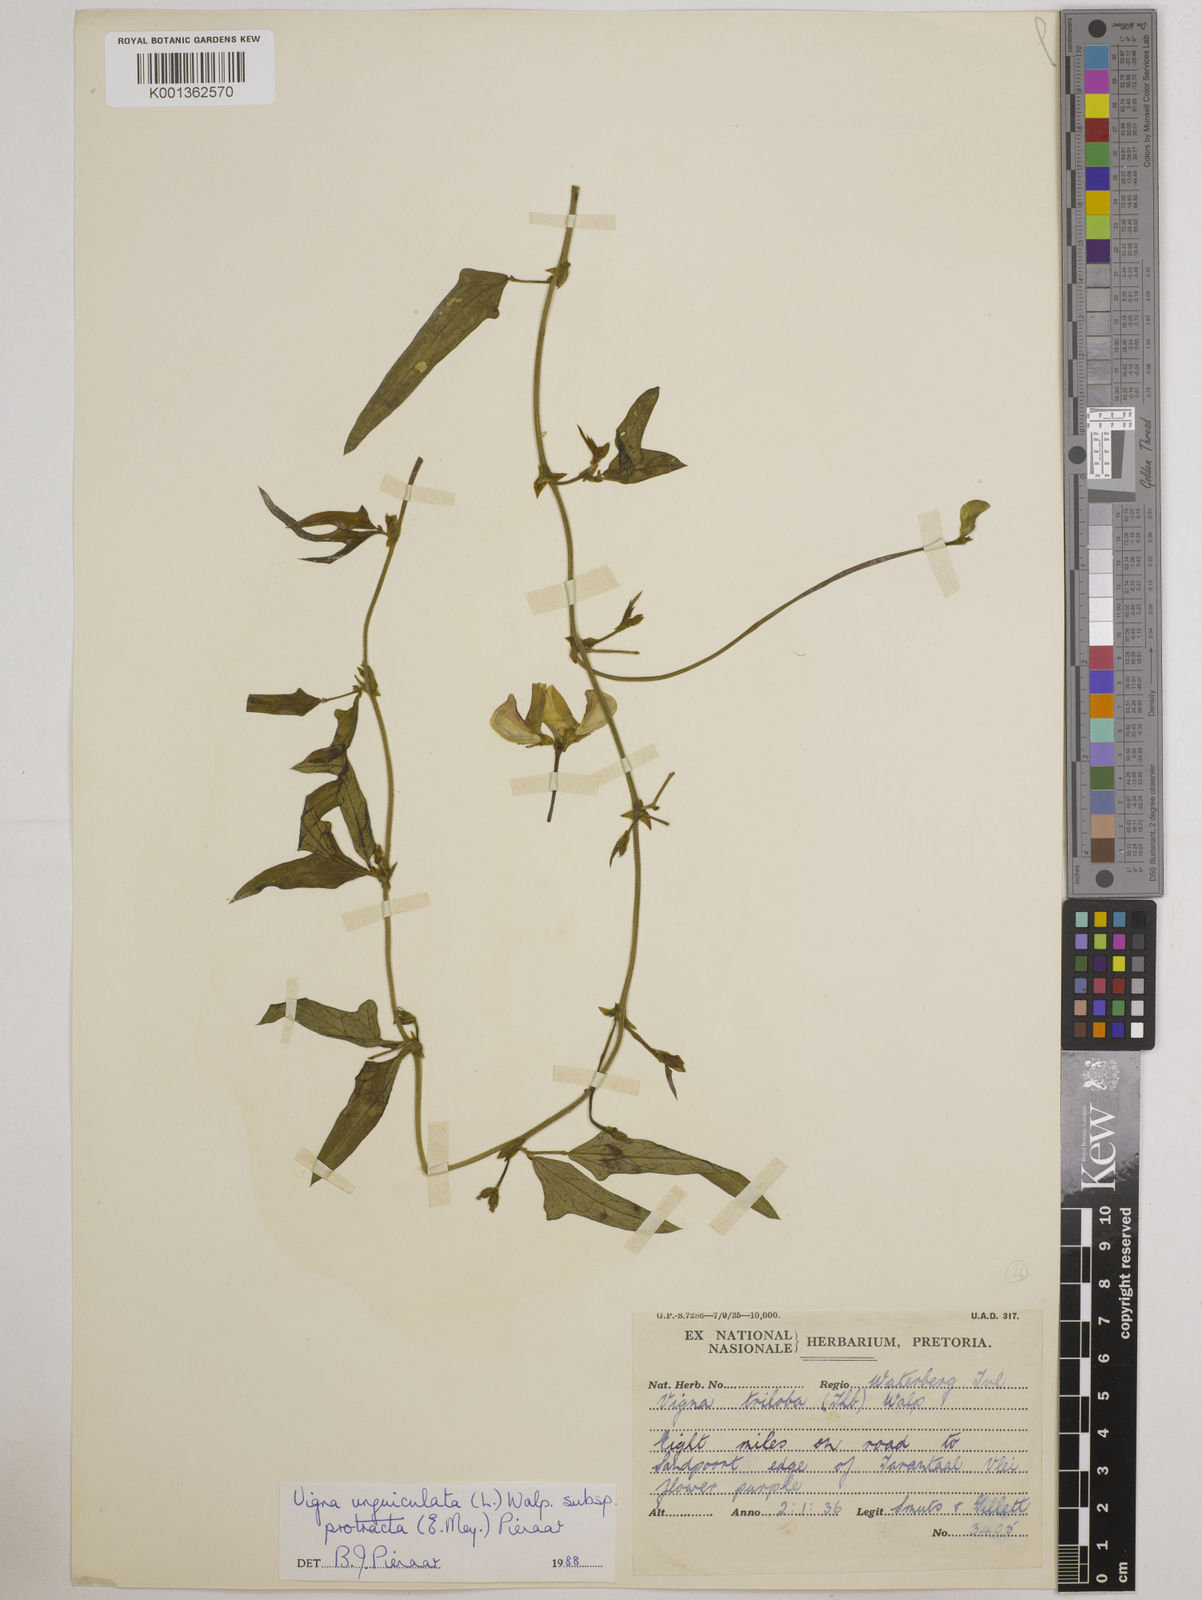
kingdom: Plantae
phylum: Tracheophyta
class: Magnoliopsida
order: Fabales
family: Fabaceae
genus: Vigna
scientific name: Vigna unguiculata
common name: Cowpea
